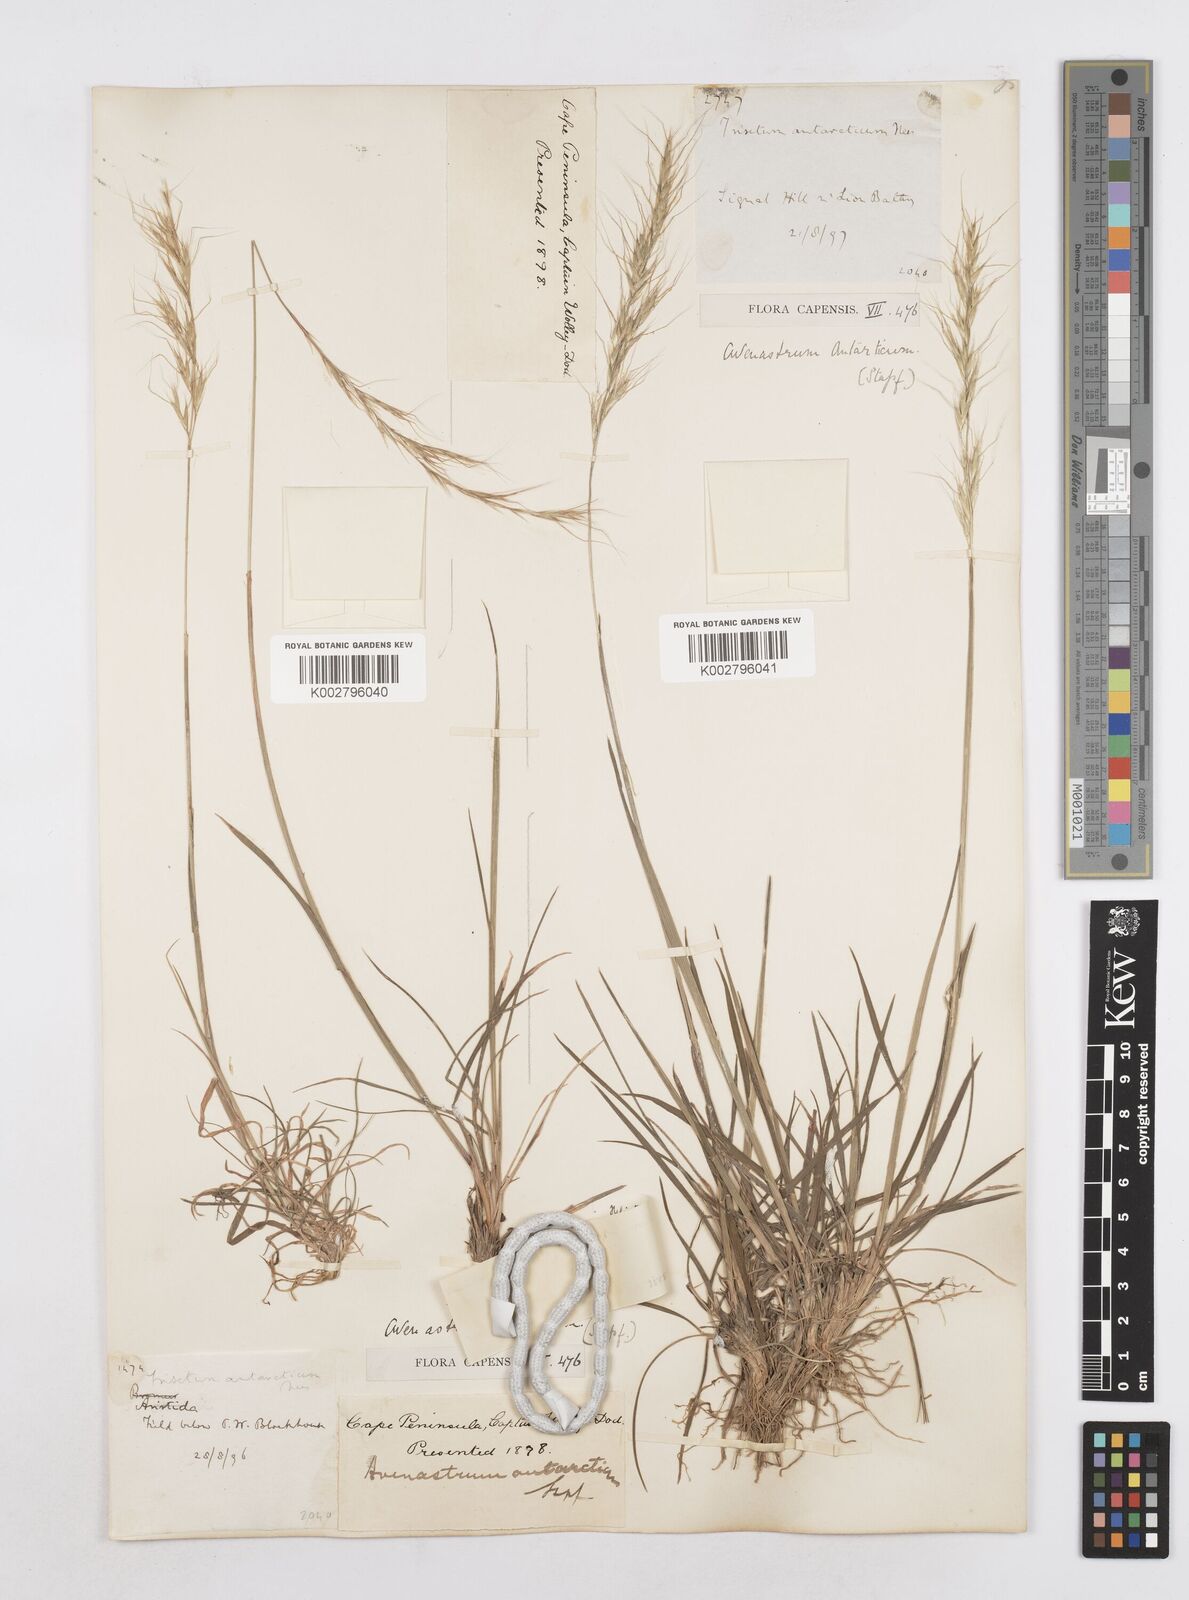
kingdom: Plantae
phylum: Tracheophyta
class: Liliopsida
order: Poales
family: Poaceae
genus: Trisetopsis
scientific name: Trisetopsis leonina
